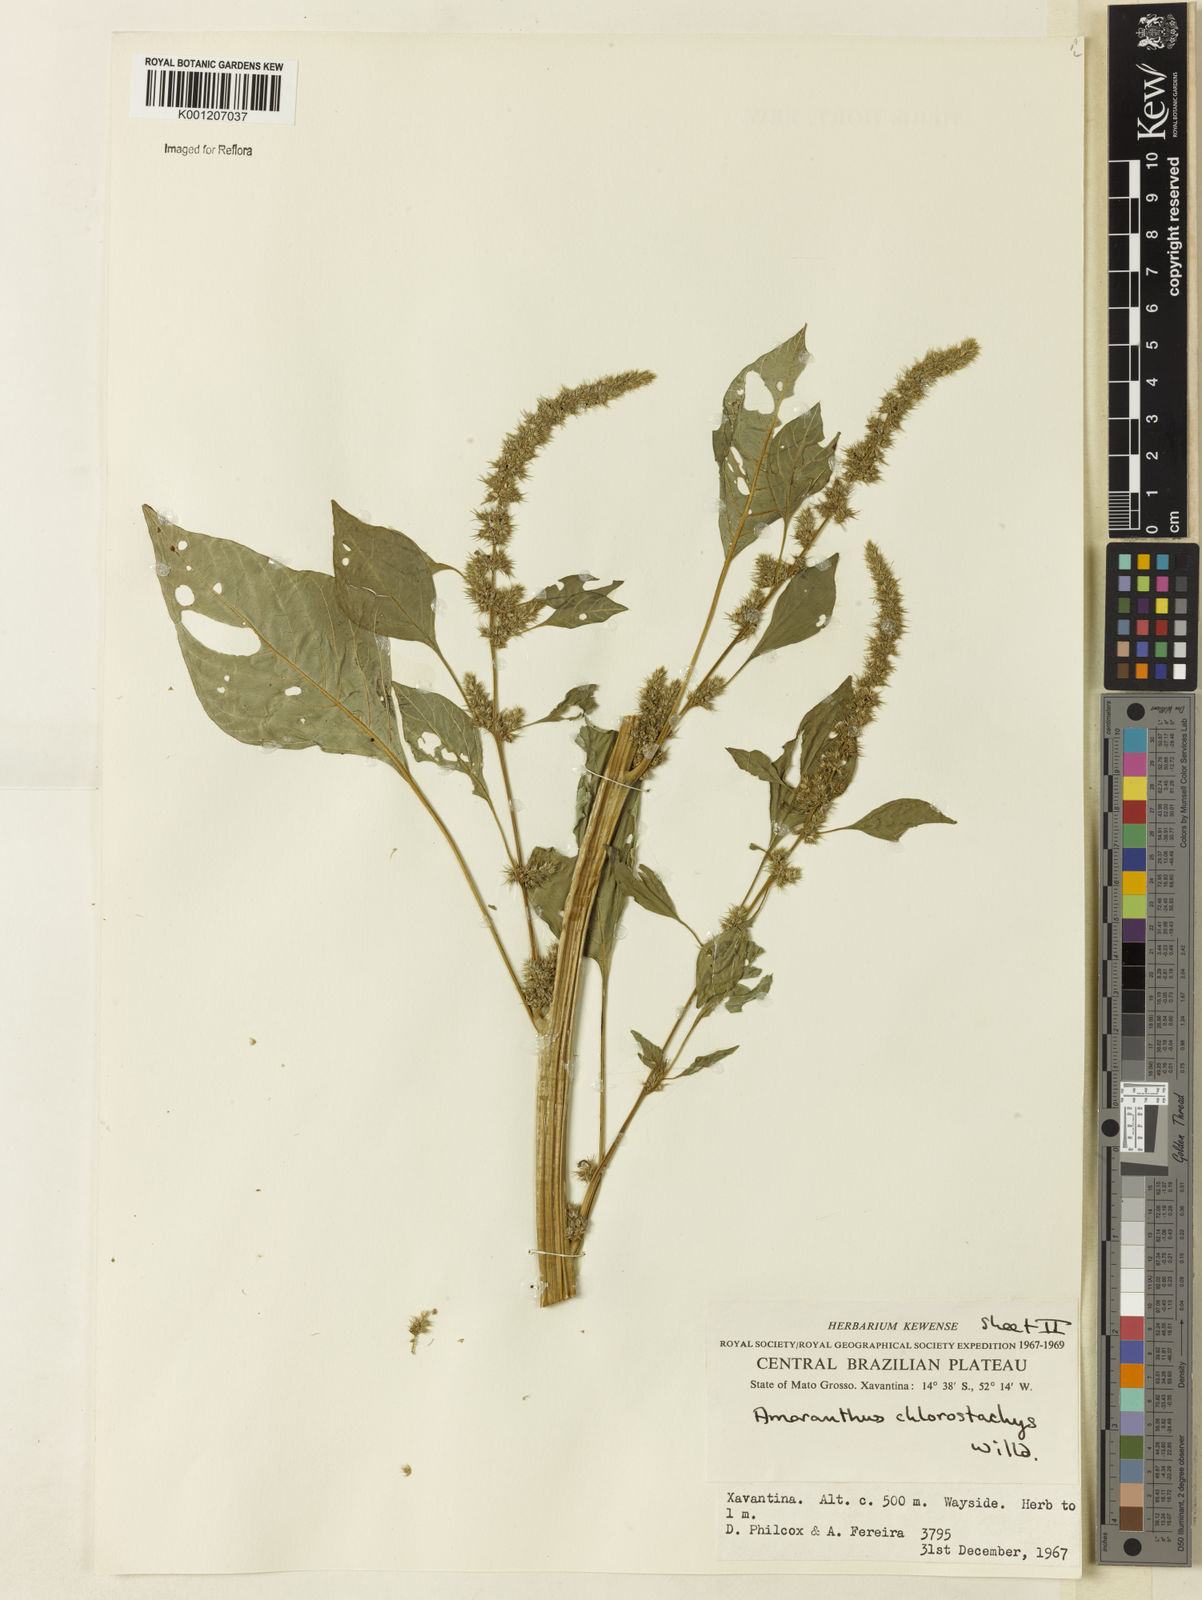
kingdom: Plantae
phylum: Tracheophyta
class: Magnoliopsida
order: Caryophyllales
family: Amaranthaceae
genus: Amaranthus
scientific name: Amaranthus
